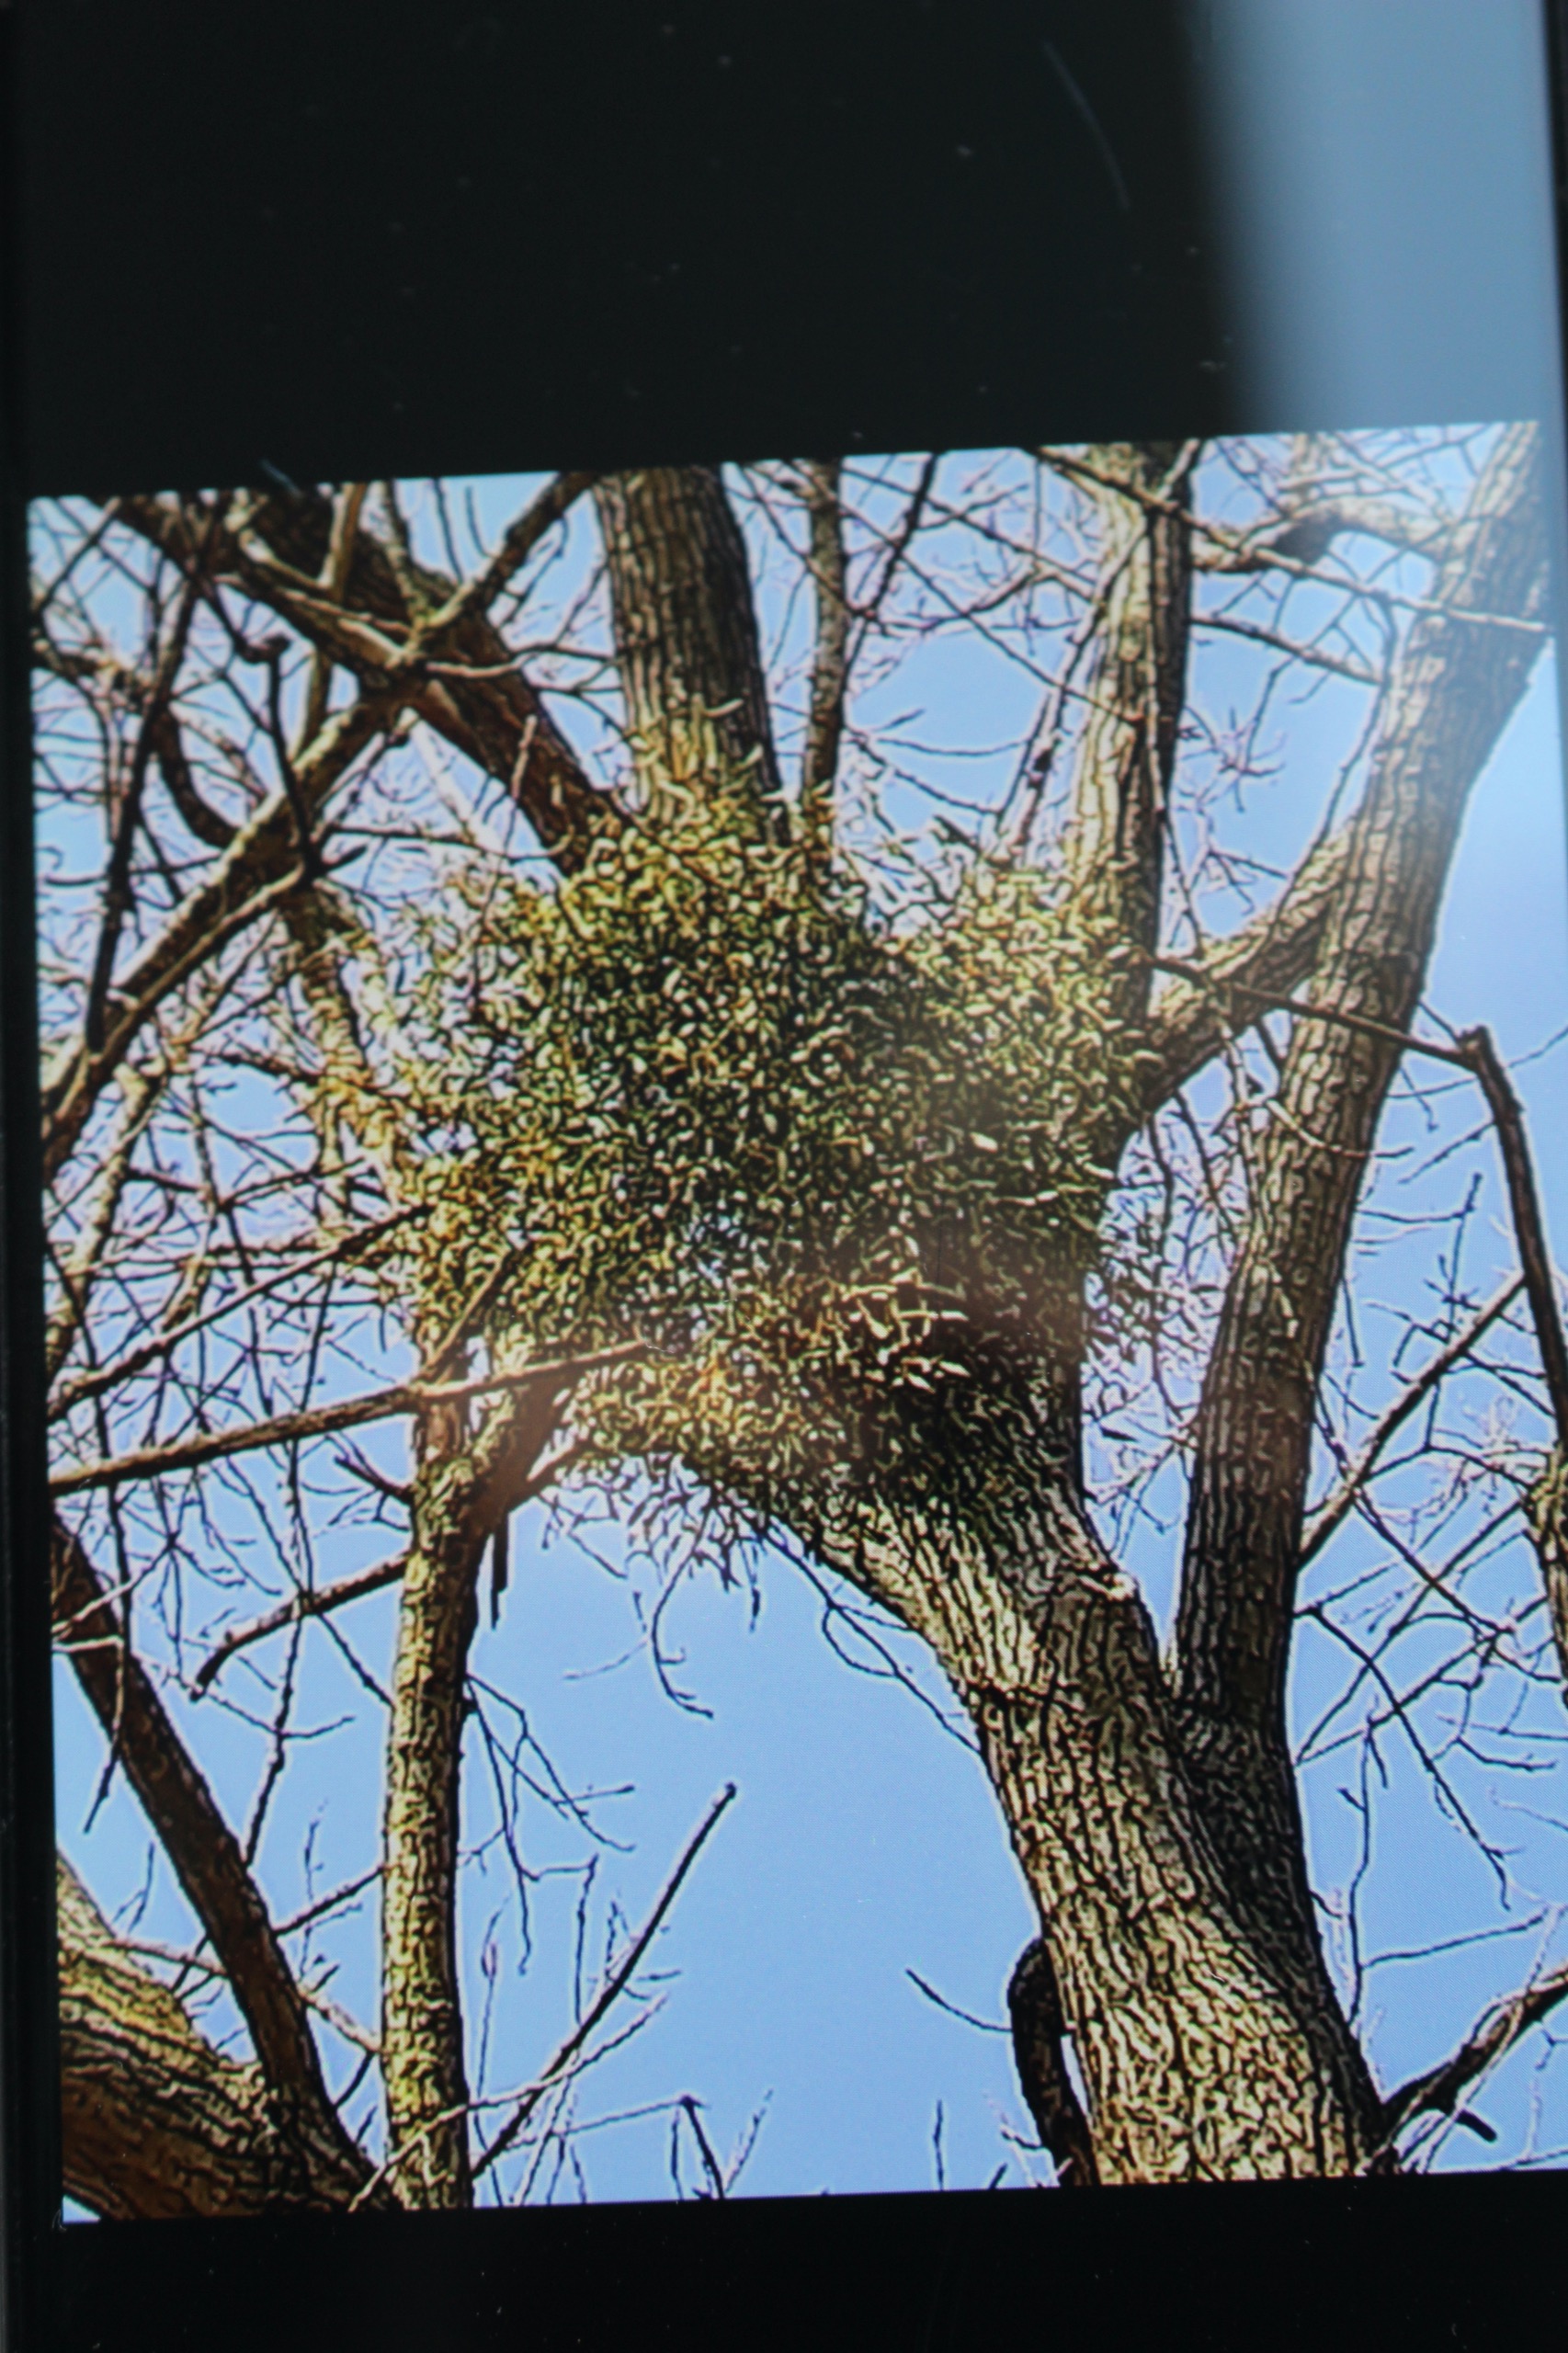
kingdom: Plantae
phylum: Tracheophyta
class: Magnoliopsida
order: Santalales
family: Viscaceae
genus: Viscum
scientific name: Viscum album
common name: Mistelten
